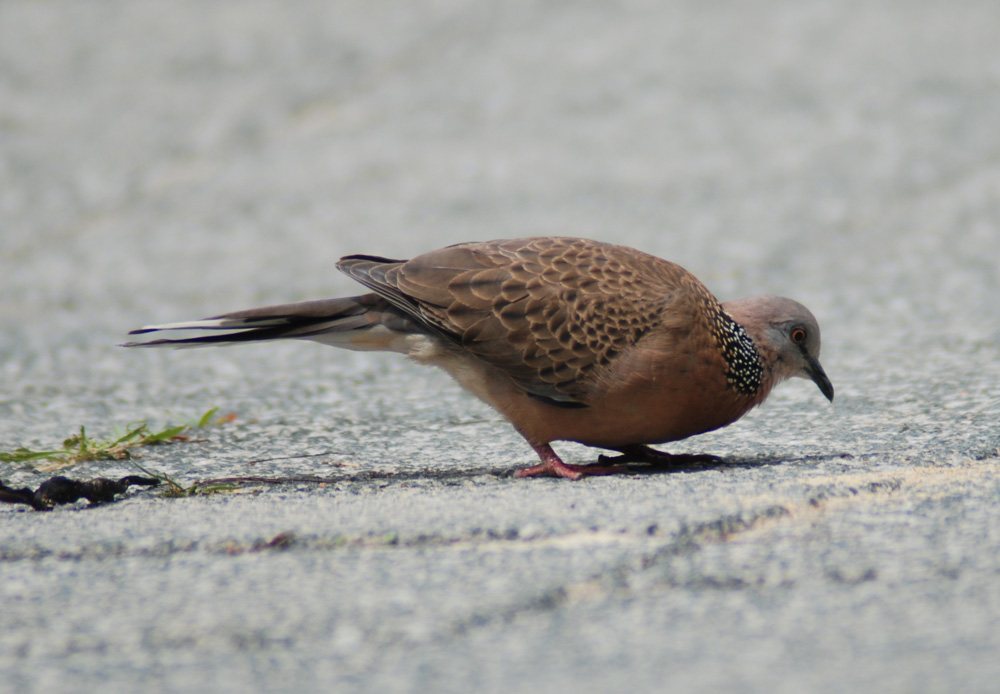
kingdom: Animalia
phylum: Chordata
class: Aves
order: Columbiformes
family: Columbidae
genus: Spilopelia
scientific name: Spilopelia chinensis
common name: Spotted dove
